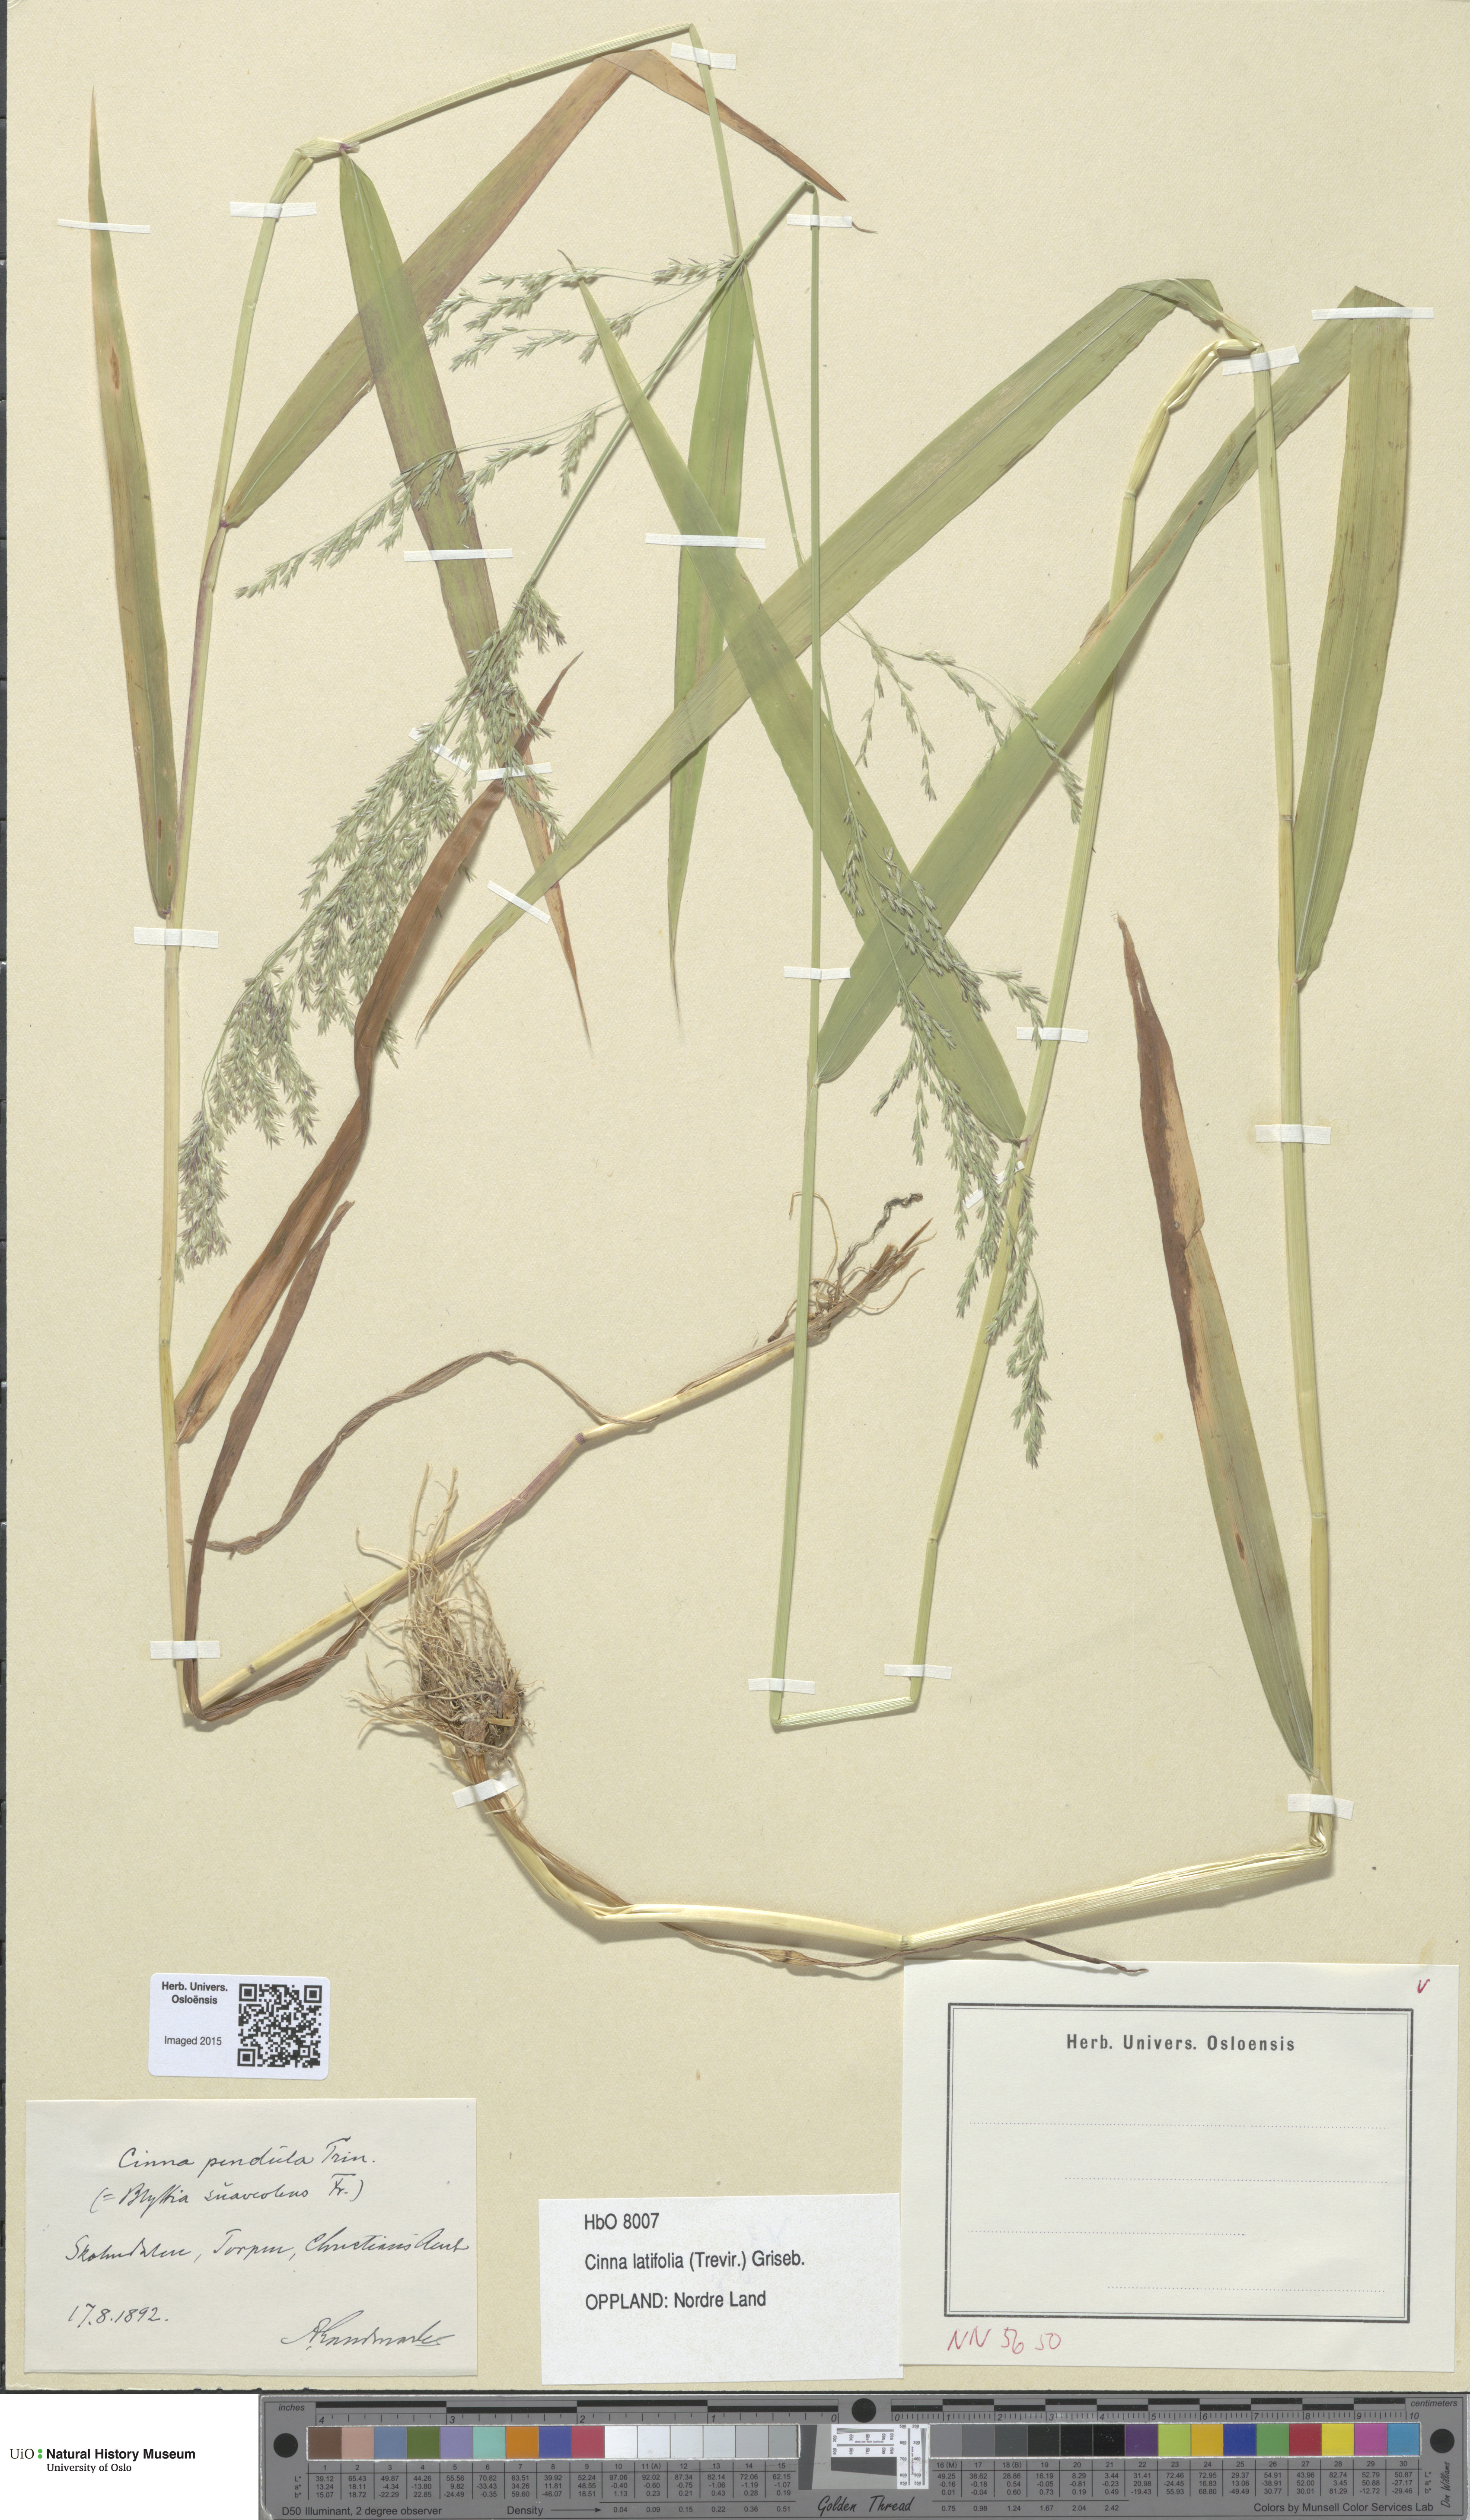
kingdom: Plantae
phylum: Tracheophyta
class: Liliopsida
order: Poales
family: Poaceae
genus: Cinna
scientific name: Cinna latifolia
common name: Drooping woodreed
